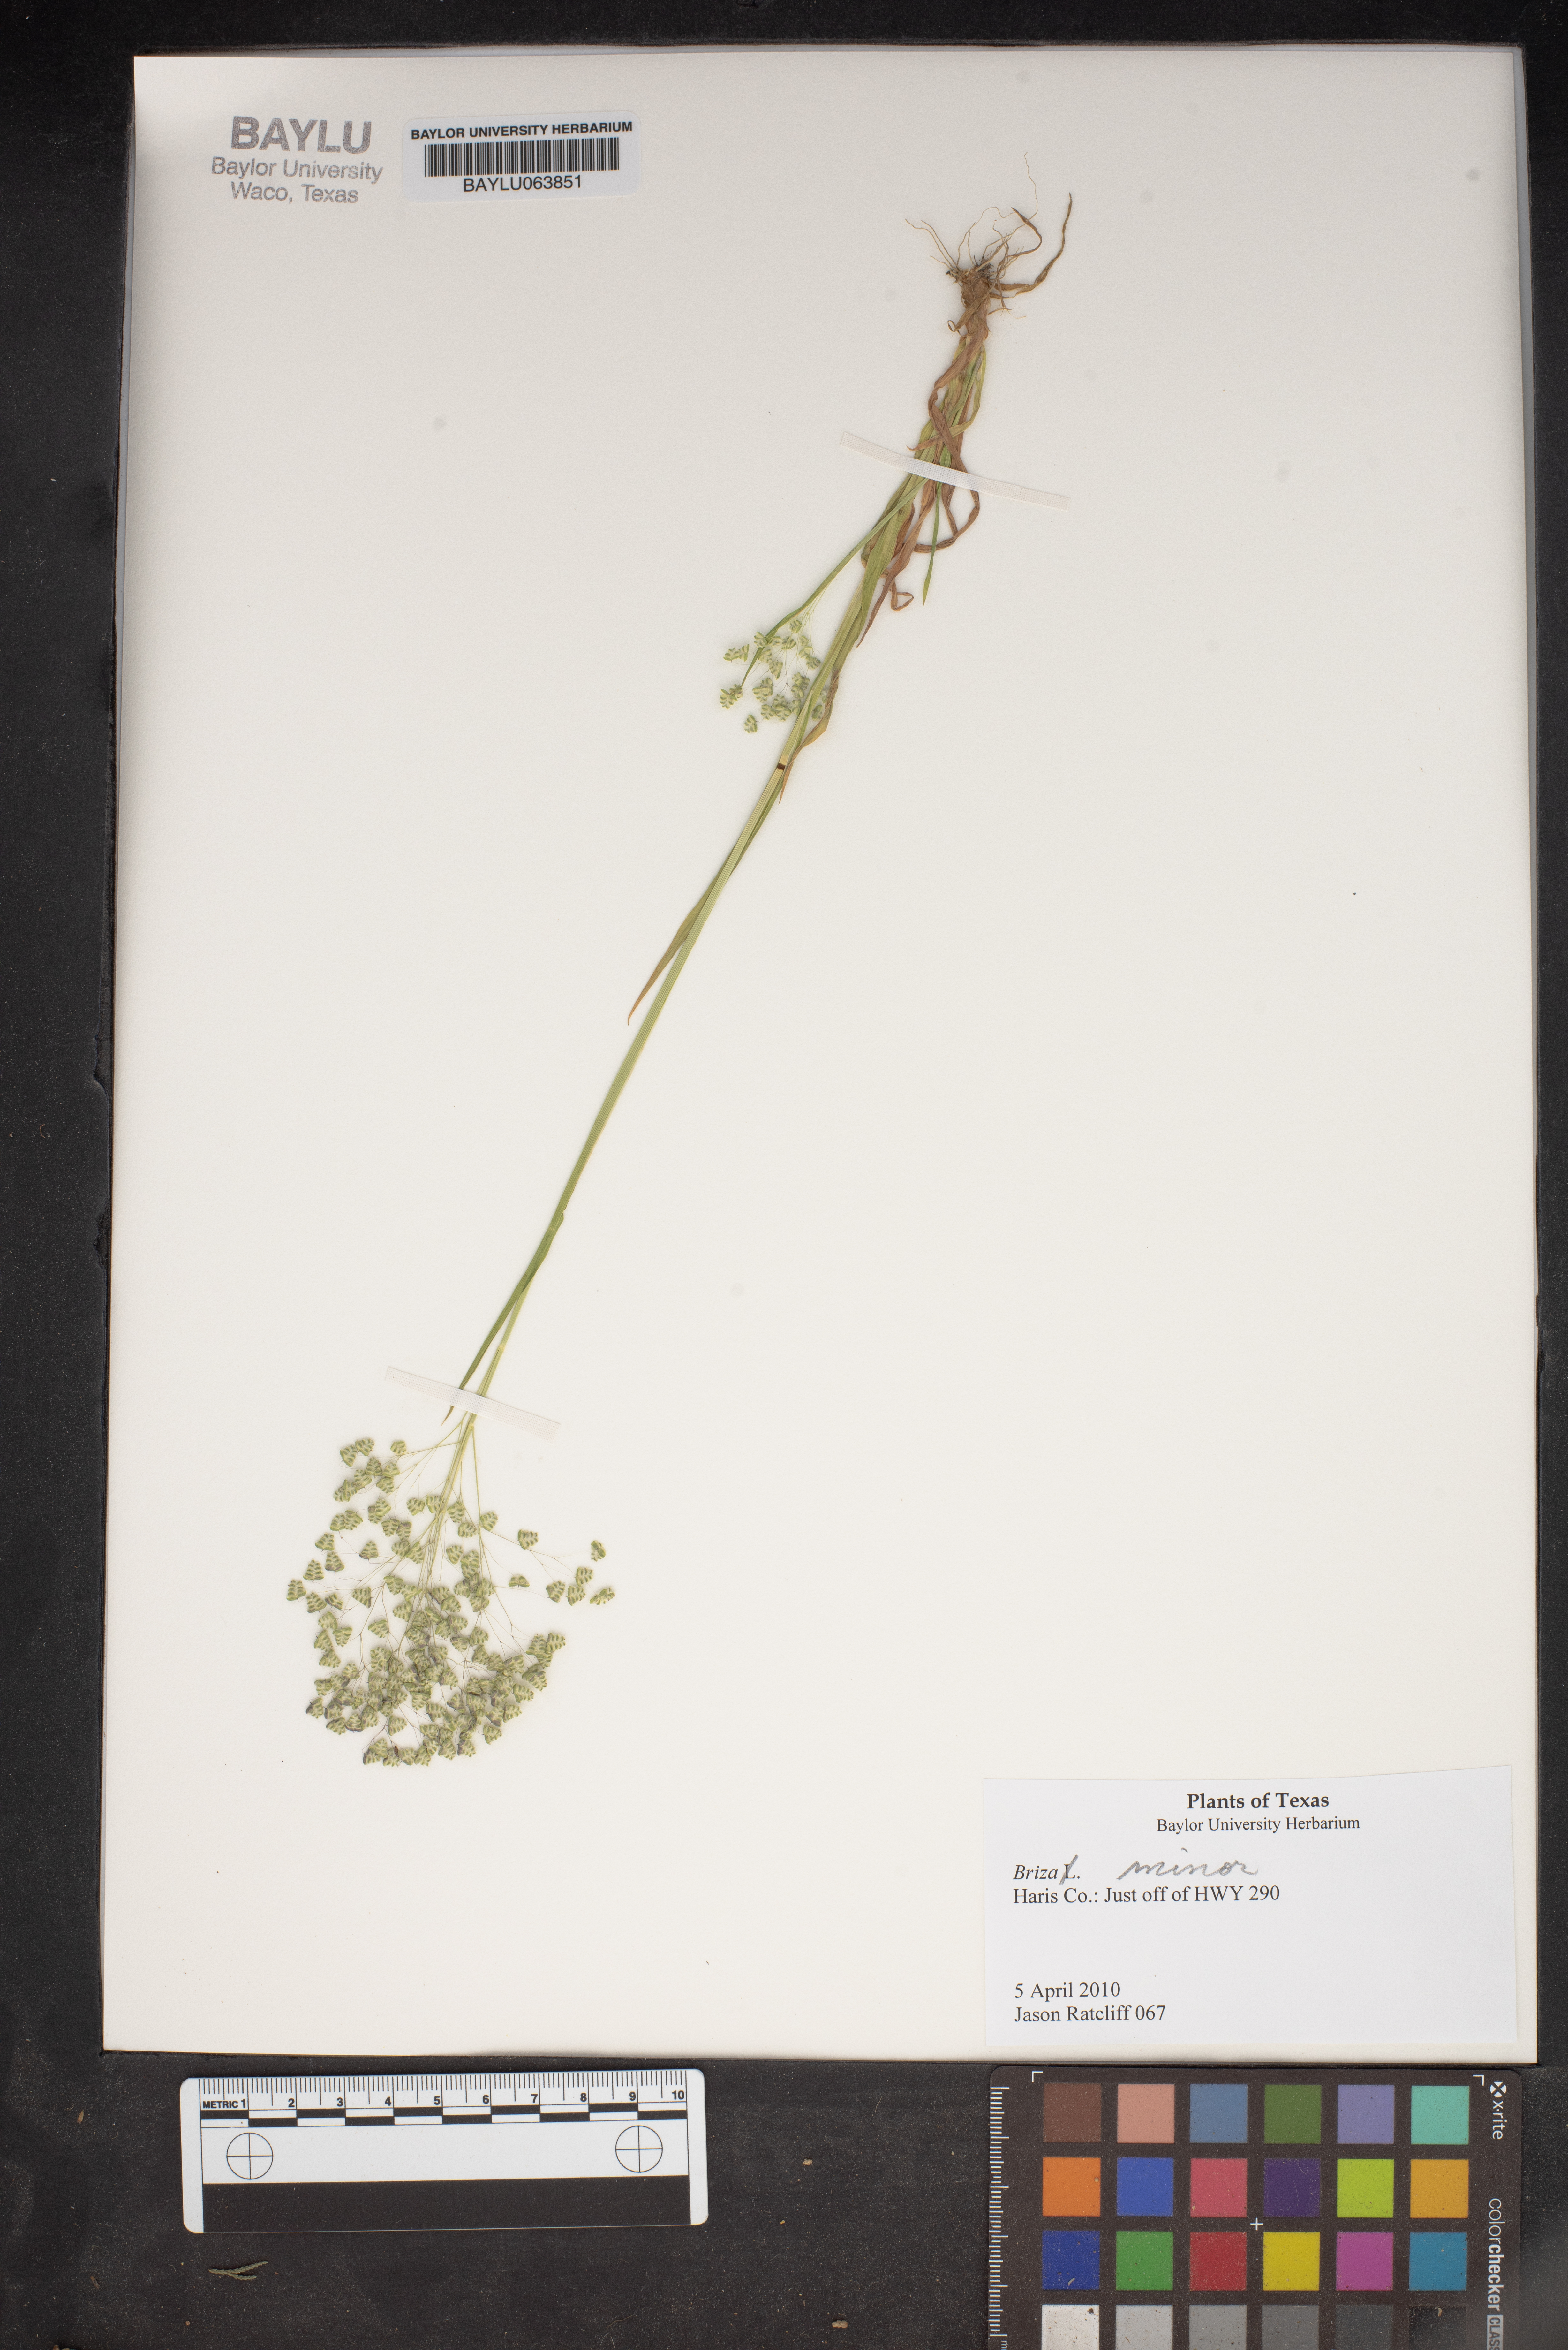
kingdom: Plantae
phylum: Tracheophyta
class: Liliopsida
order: Poales
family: Poaceae
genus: Briza
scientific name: Briza minor
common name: Lesser quaking-grass
